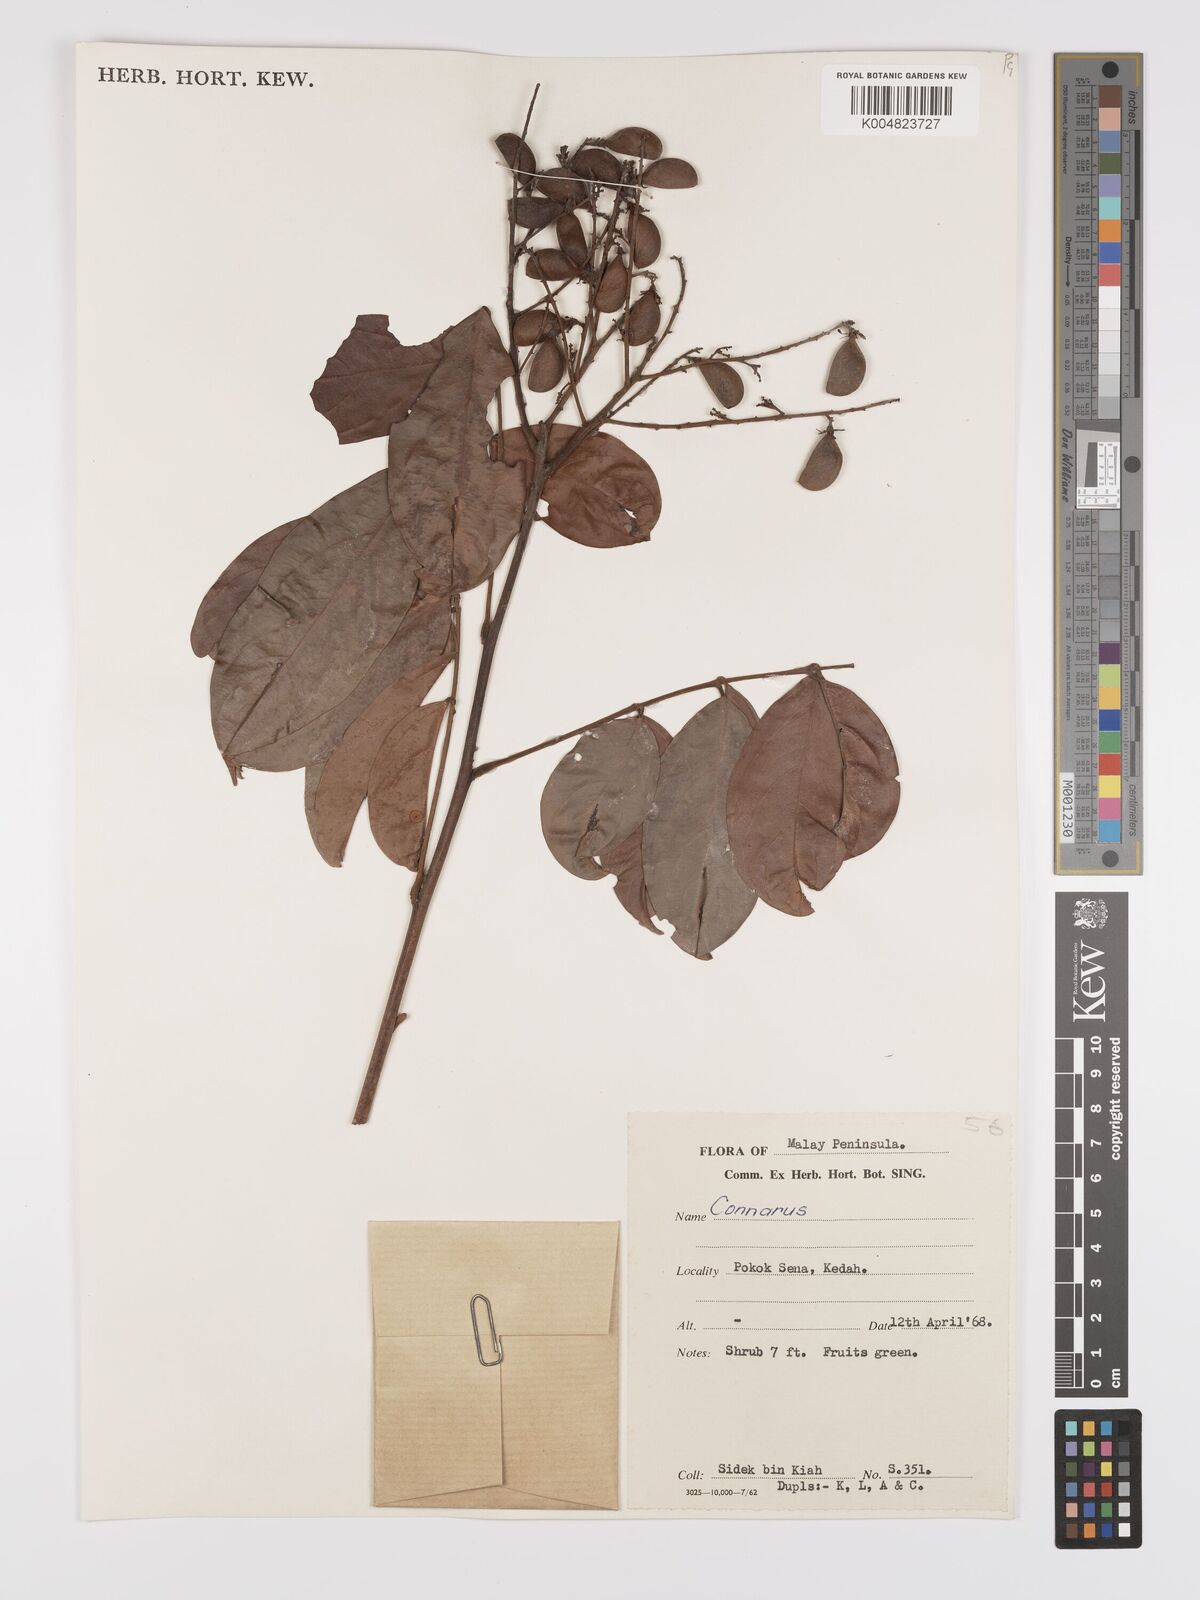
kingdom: Plantae
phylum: Tracheophyta
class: Magnoliopsida
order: Oxalidales
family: Connaraceae
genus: Connarus
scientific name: Connarus
